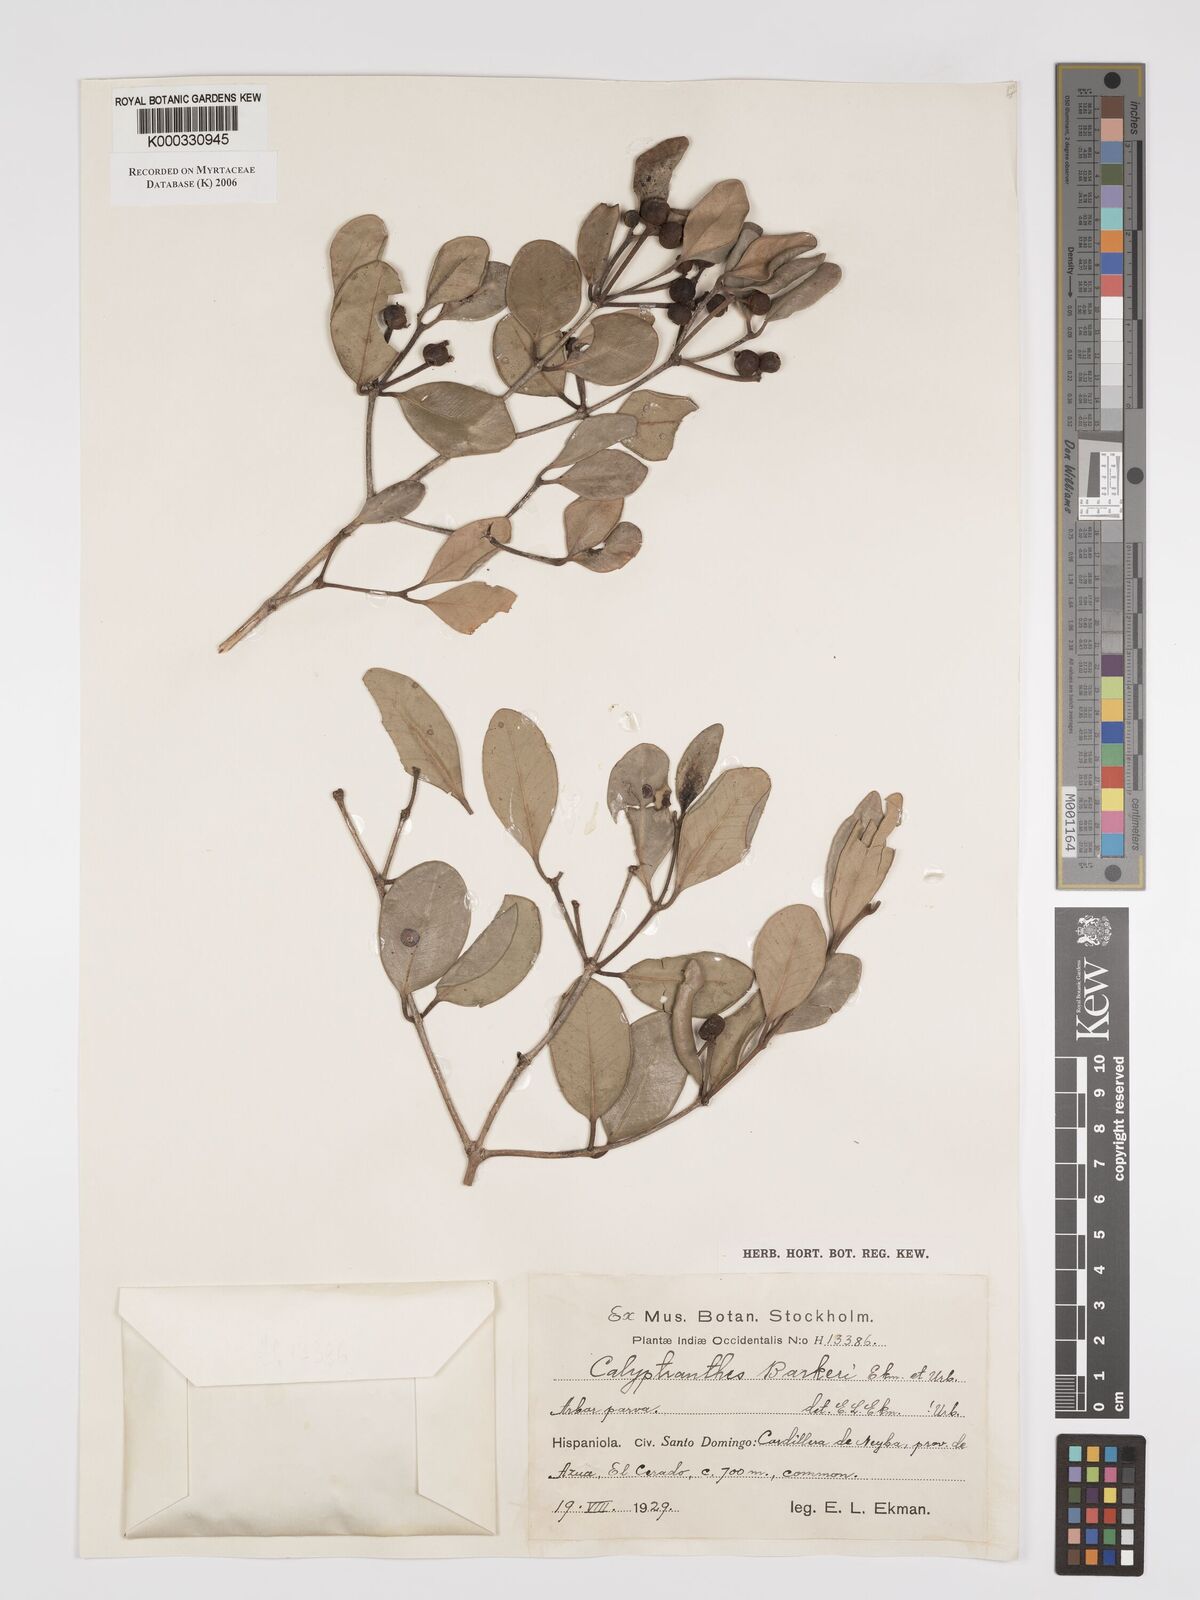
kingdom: Plantae
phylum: Tracheophyta
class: Magnoliopsida
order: Myrtales
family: Myrtaceae
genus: Myrcia
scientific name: Myrcia barkeri
